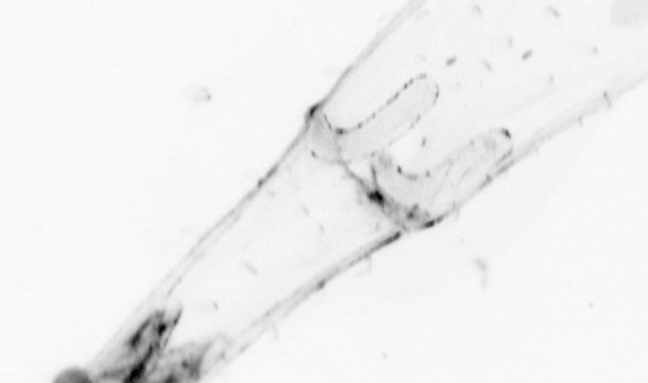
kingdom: Animalia
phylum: Chaetognatha
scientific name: Chaetognatha
